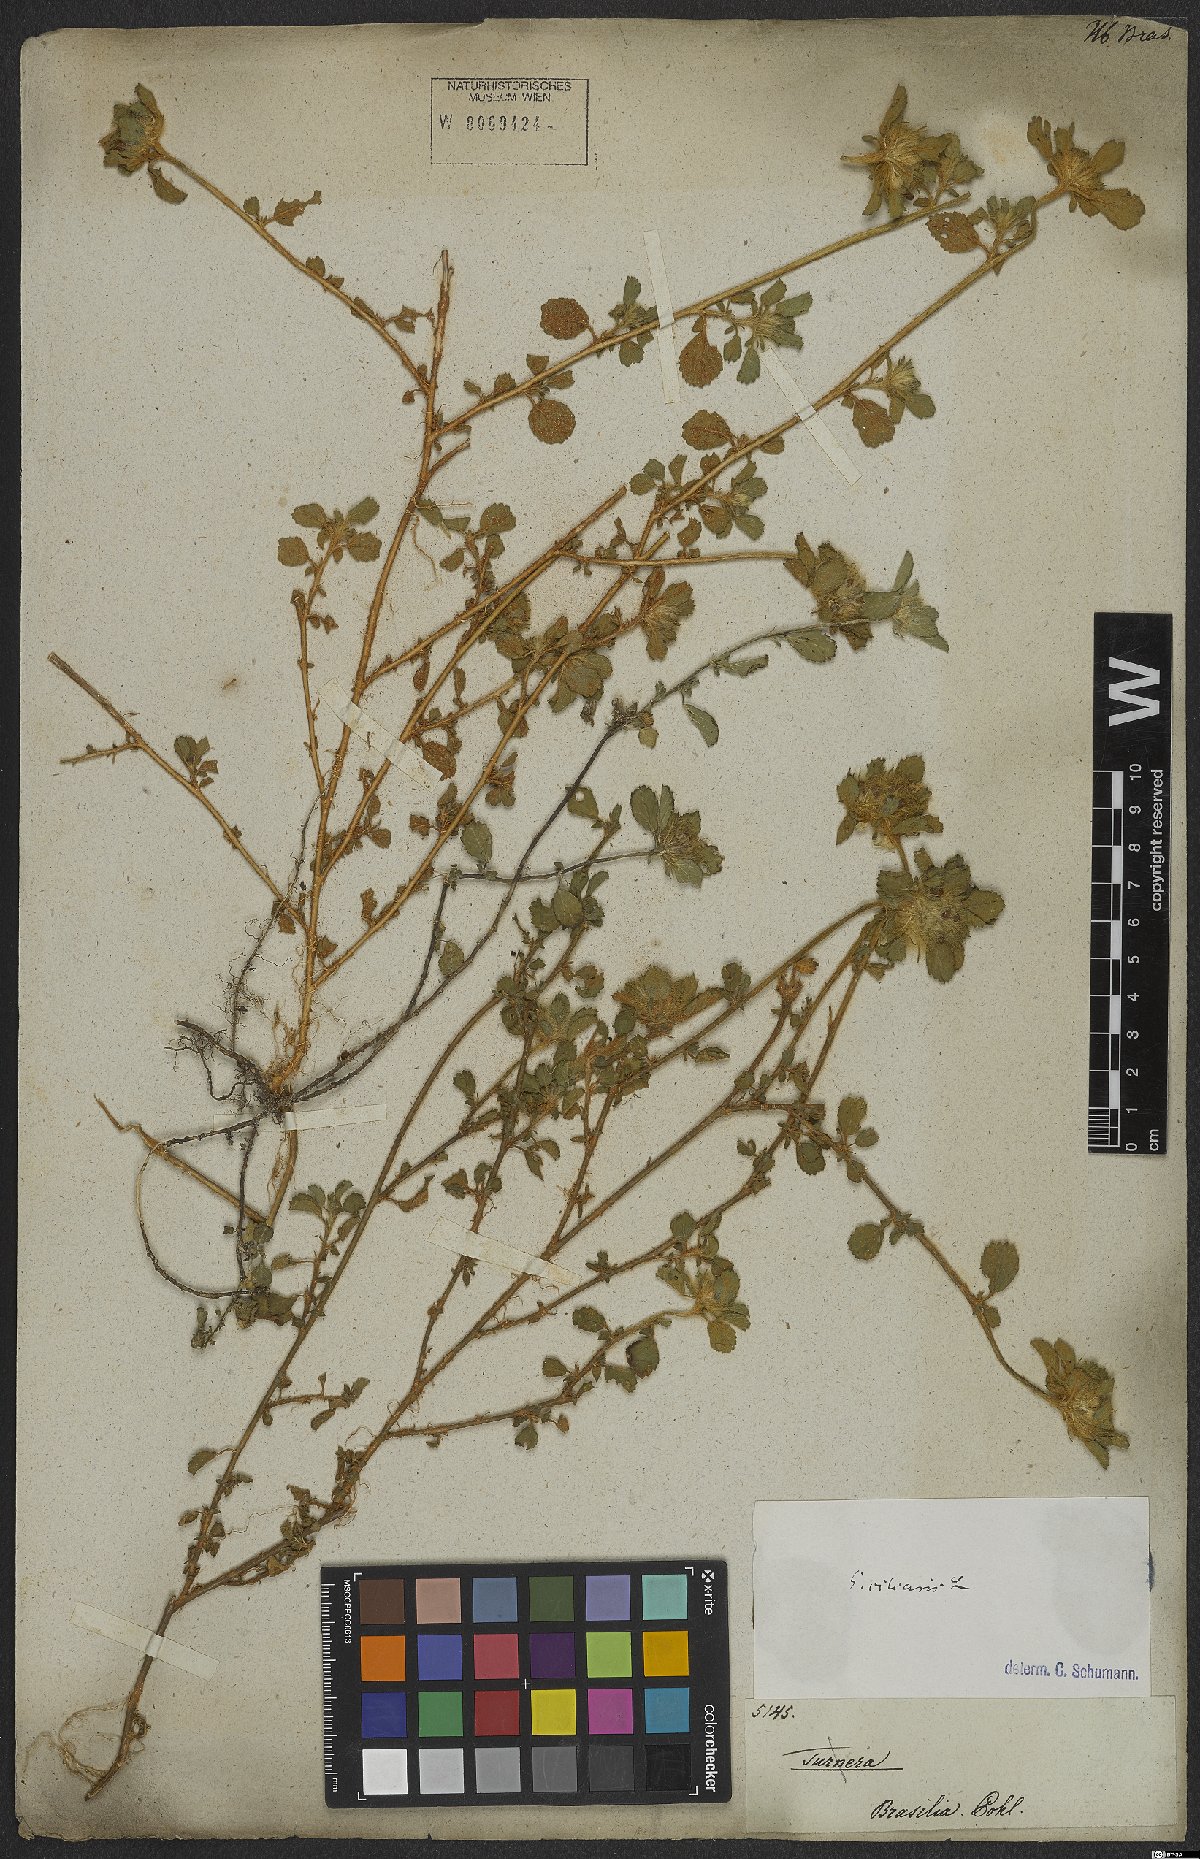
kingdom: Plantae
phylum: Tracheophyta
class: Magnoliopsida
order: Malvales
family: Malvaceae
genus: Sida
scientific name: Sida ciliaris
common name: Bracted fanpetals
